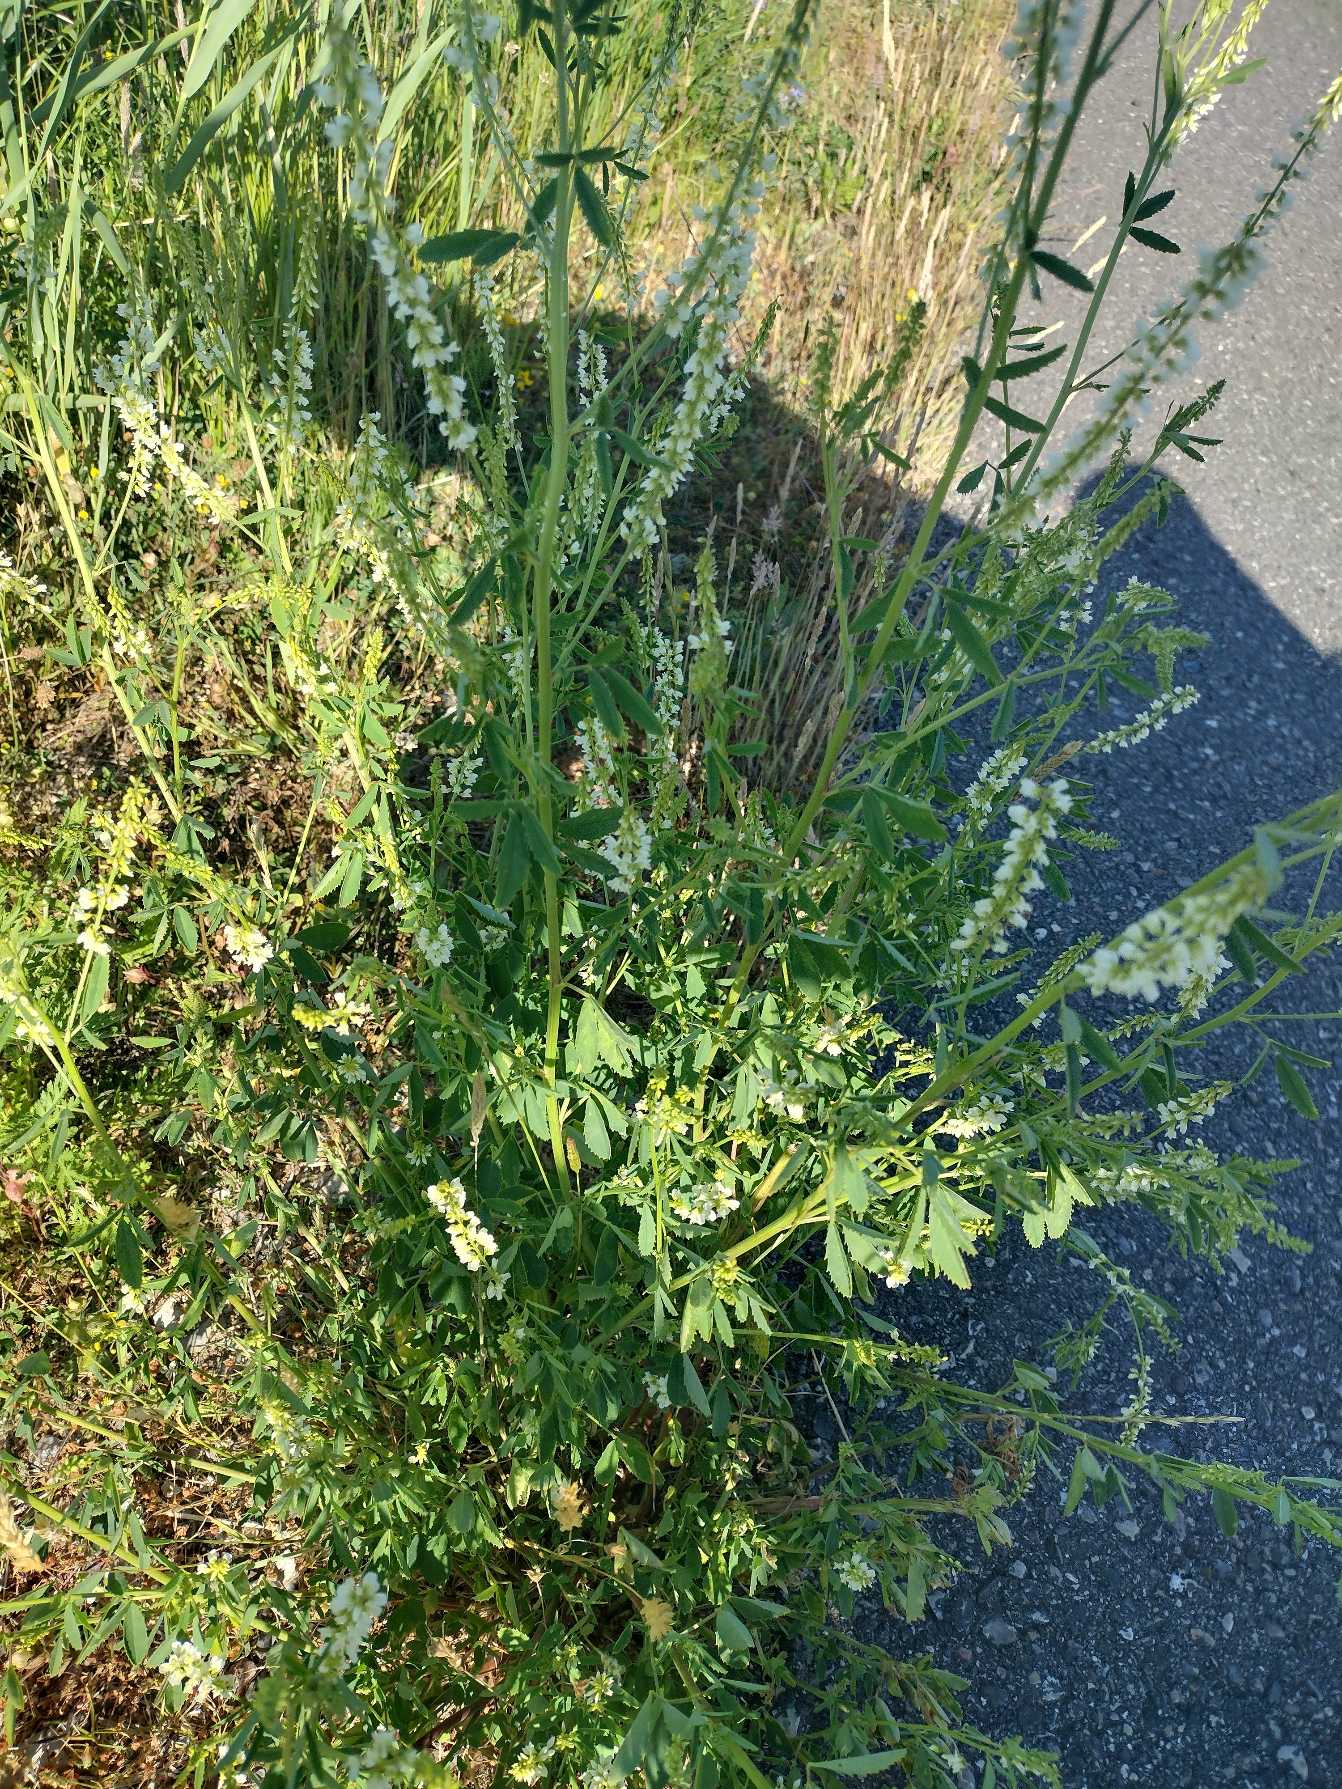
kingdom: Plantae
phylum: Tracheophyta
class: Magnoliopsida
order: Fabales
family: Fabaceae
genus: Melilotus
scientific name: Melilotus albus
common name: Hvid stenkløver
